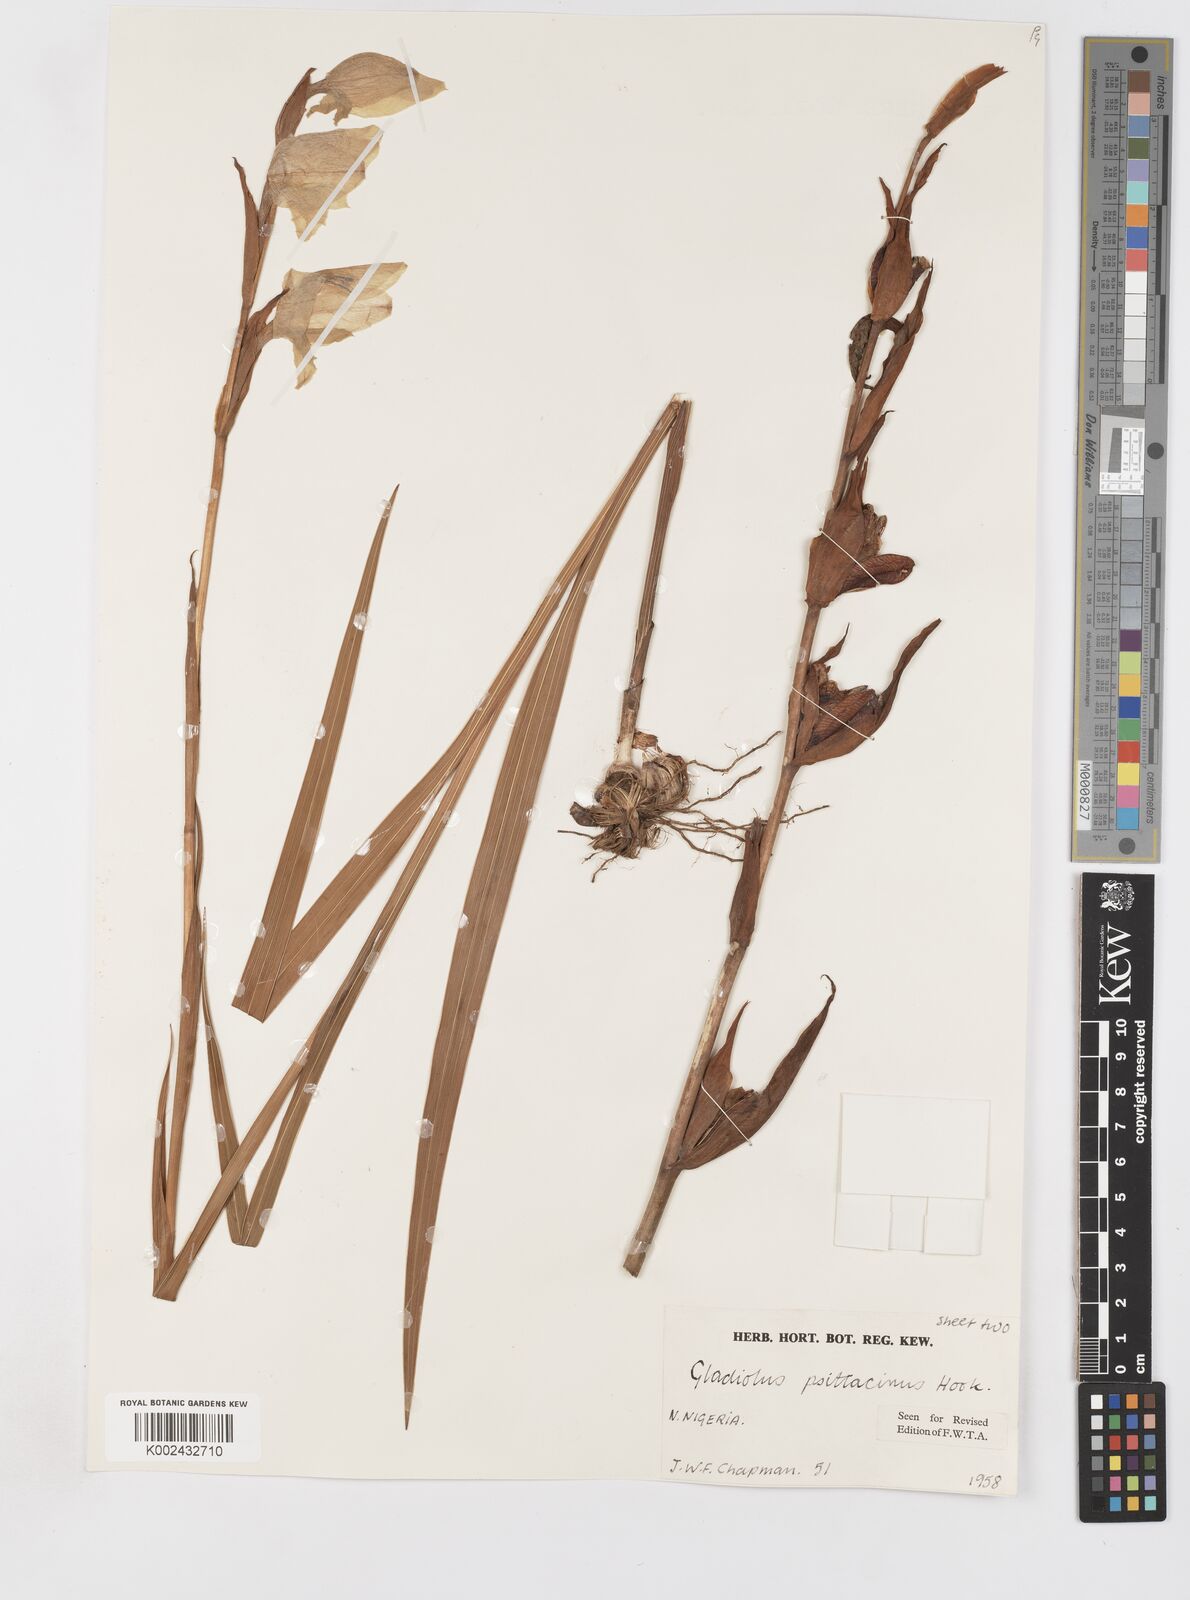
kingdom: Plantae
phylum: Tracheophyta
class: Liliopsida
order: Asparagales
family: Iridaceae
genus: Gladiolus
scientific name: Gladiolus dalenii
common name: Cornflag
